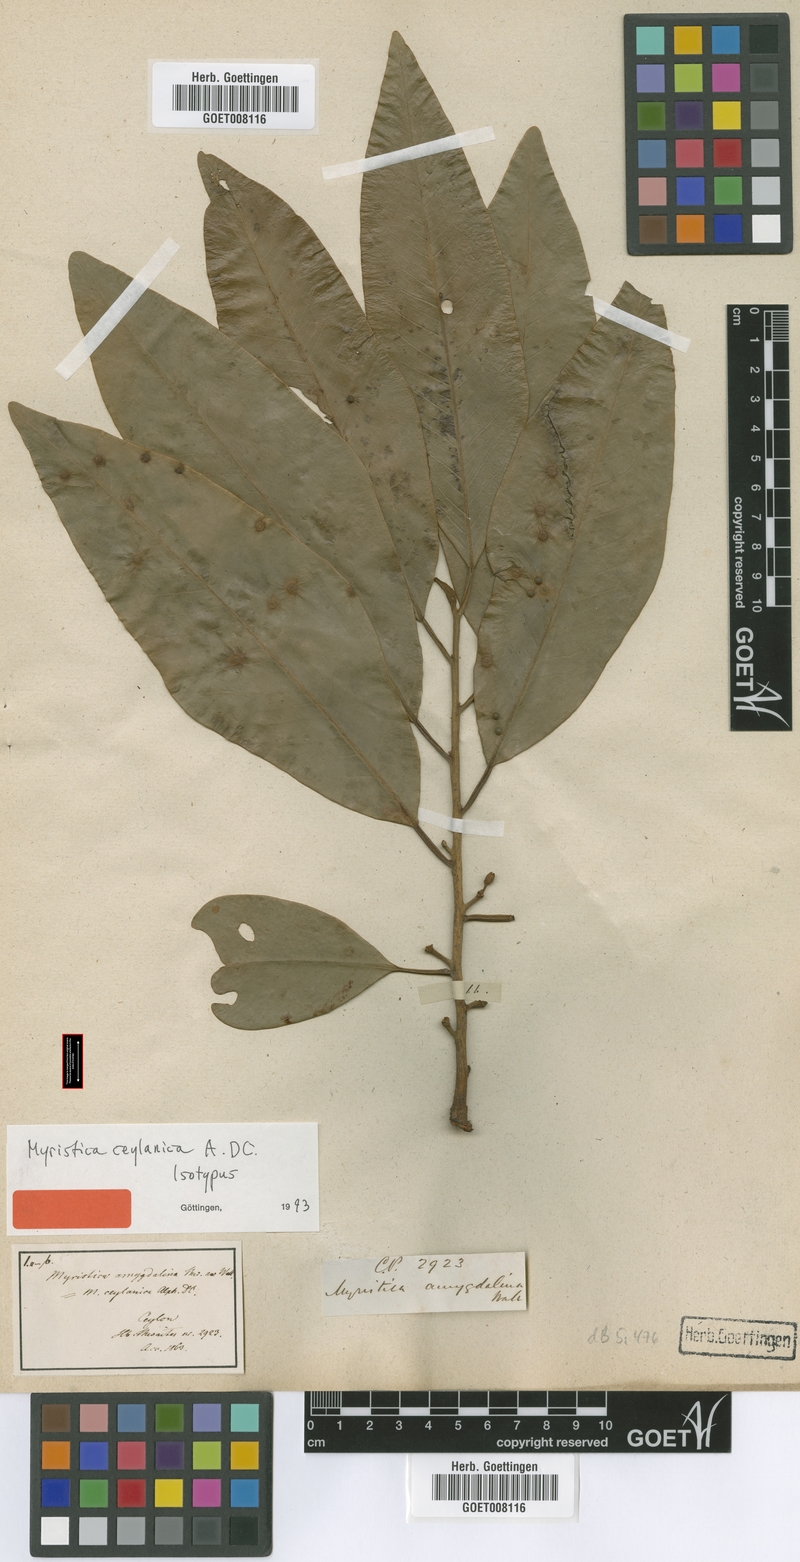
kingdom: Plantae
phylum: Tracheophyta
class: Magnoliopsida
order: Magnoliales
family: Myristicaceae
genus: Myristica
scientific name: Myristica ceylanica
